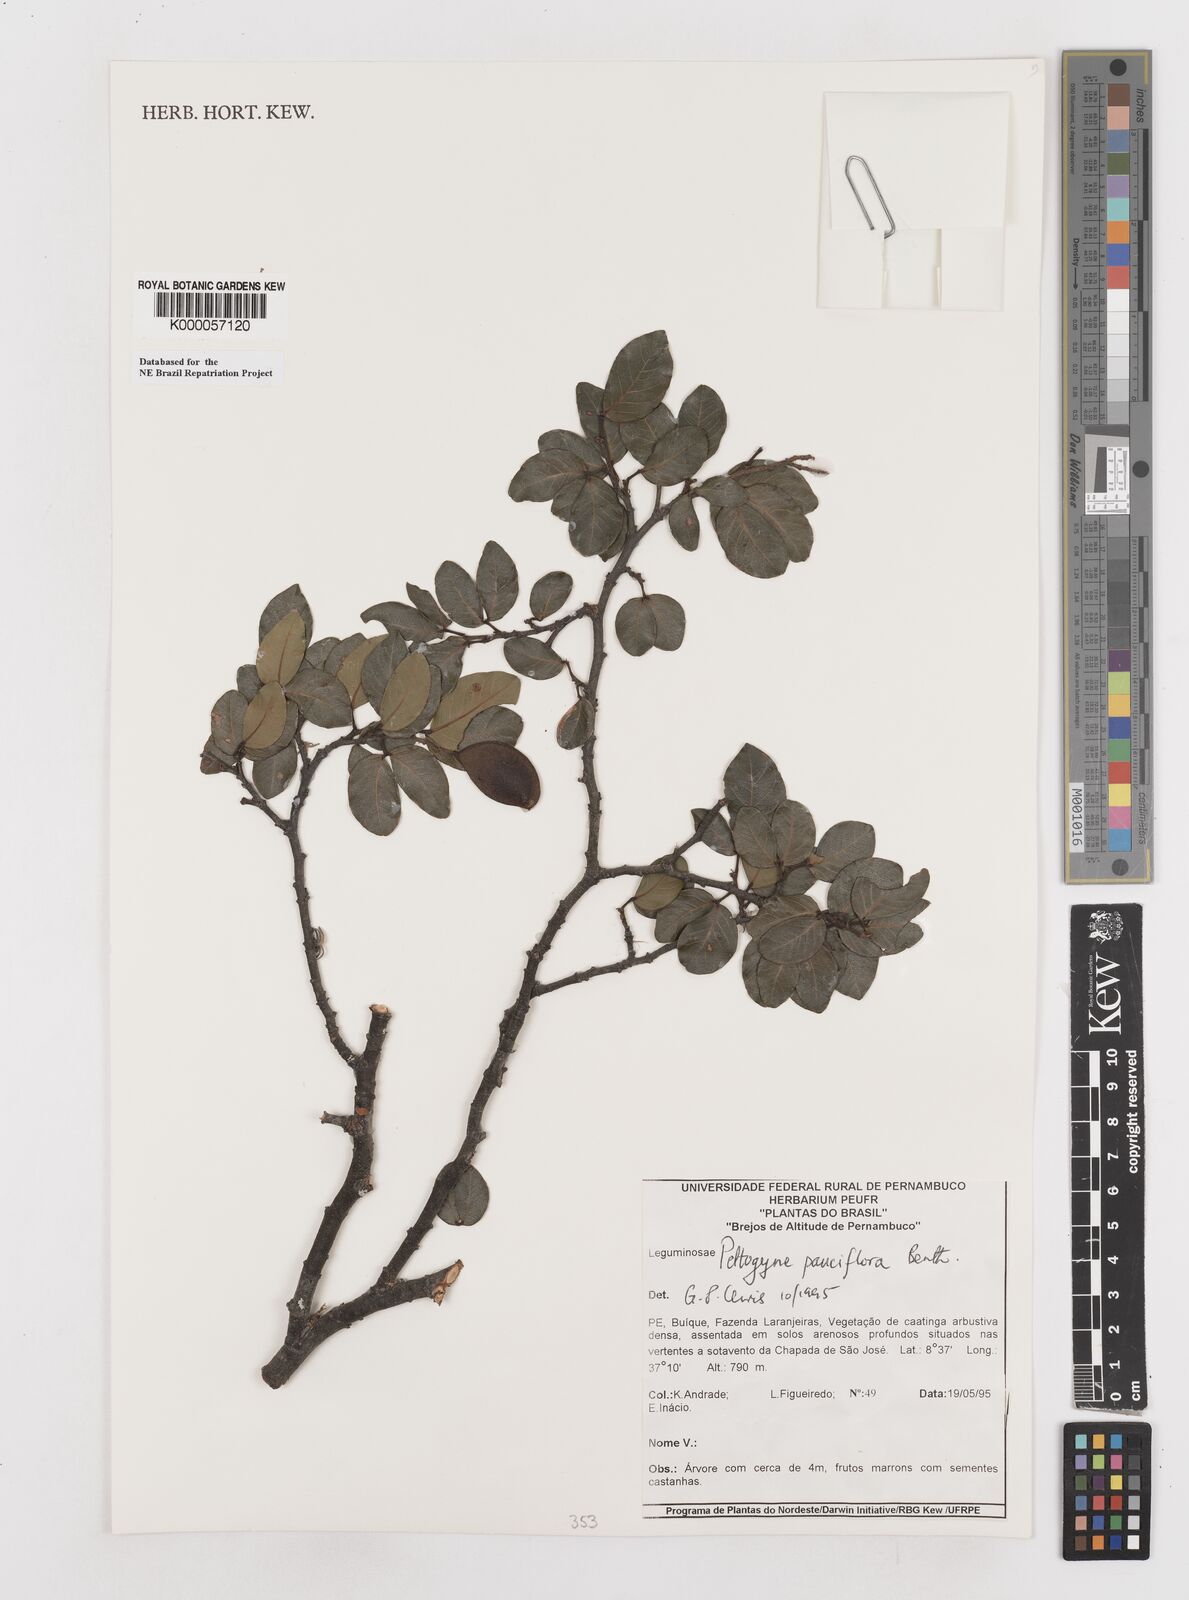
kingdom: Plantae
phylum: Tracheophyta
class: Magnoliopsida
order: Fabales
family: Fabaceae
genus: Peltogyne
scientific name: Peltogyne pauciflora
